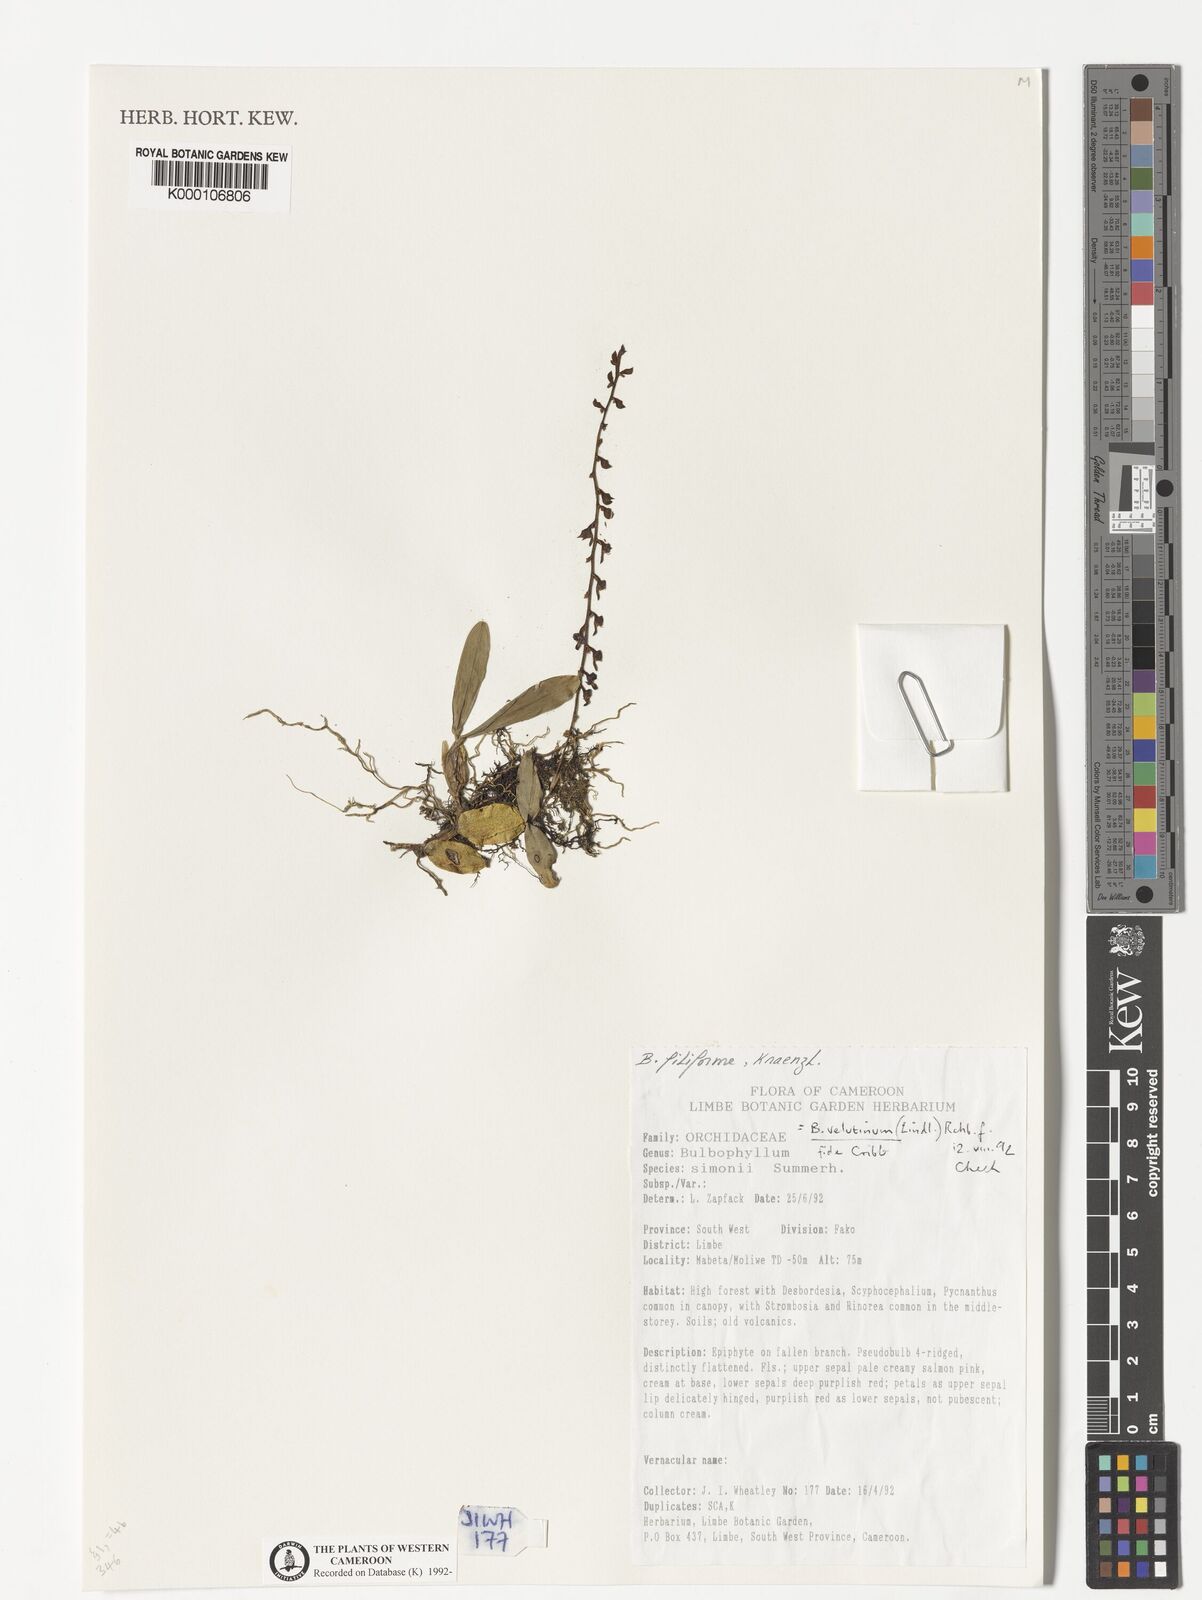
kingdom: Plantae
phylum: Tracheophyta
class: Liliopsida
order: Asparagales
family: Orchidaceae
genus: Bulbophyllum
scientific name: Bulbophyllum resupinatum
